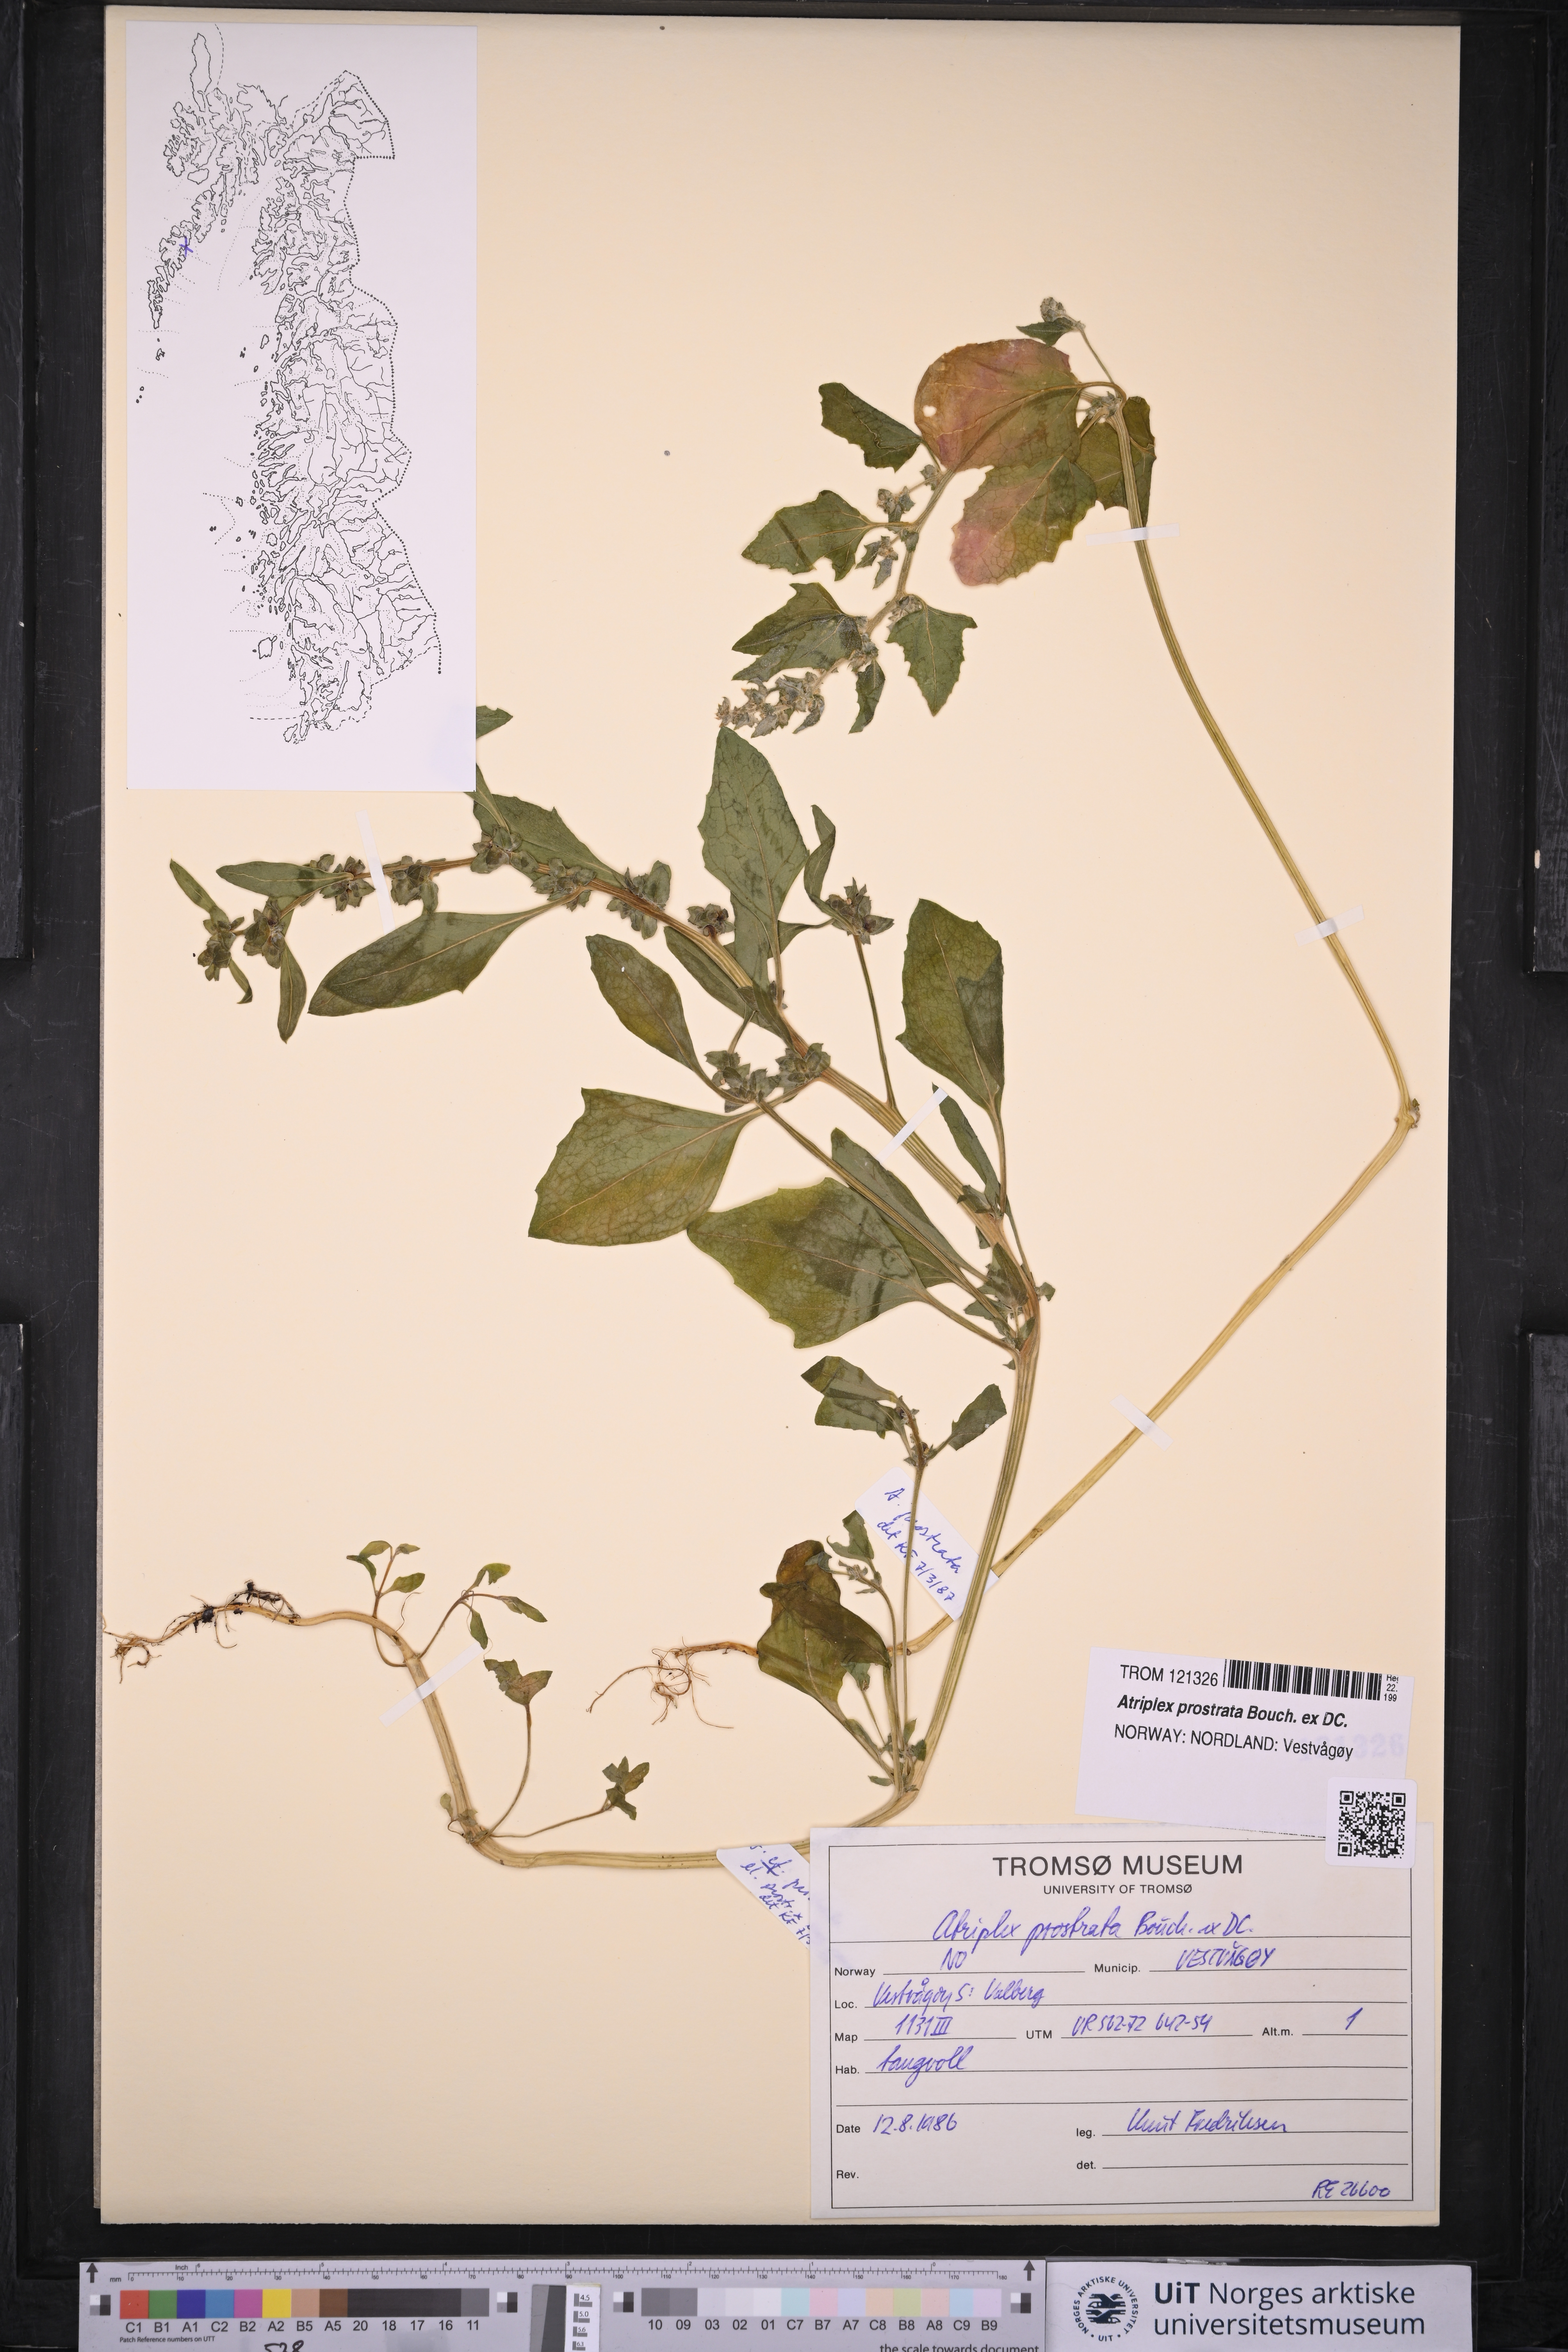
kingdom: Plantae
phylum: Tracheophyta
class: Magnoliopsida
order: Caryophyllales
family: Amaranthaceae
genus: Atriplex
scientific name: Atriplex prostrata
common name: Spear-leaved orache
